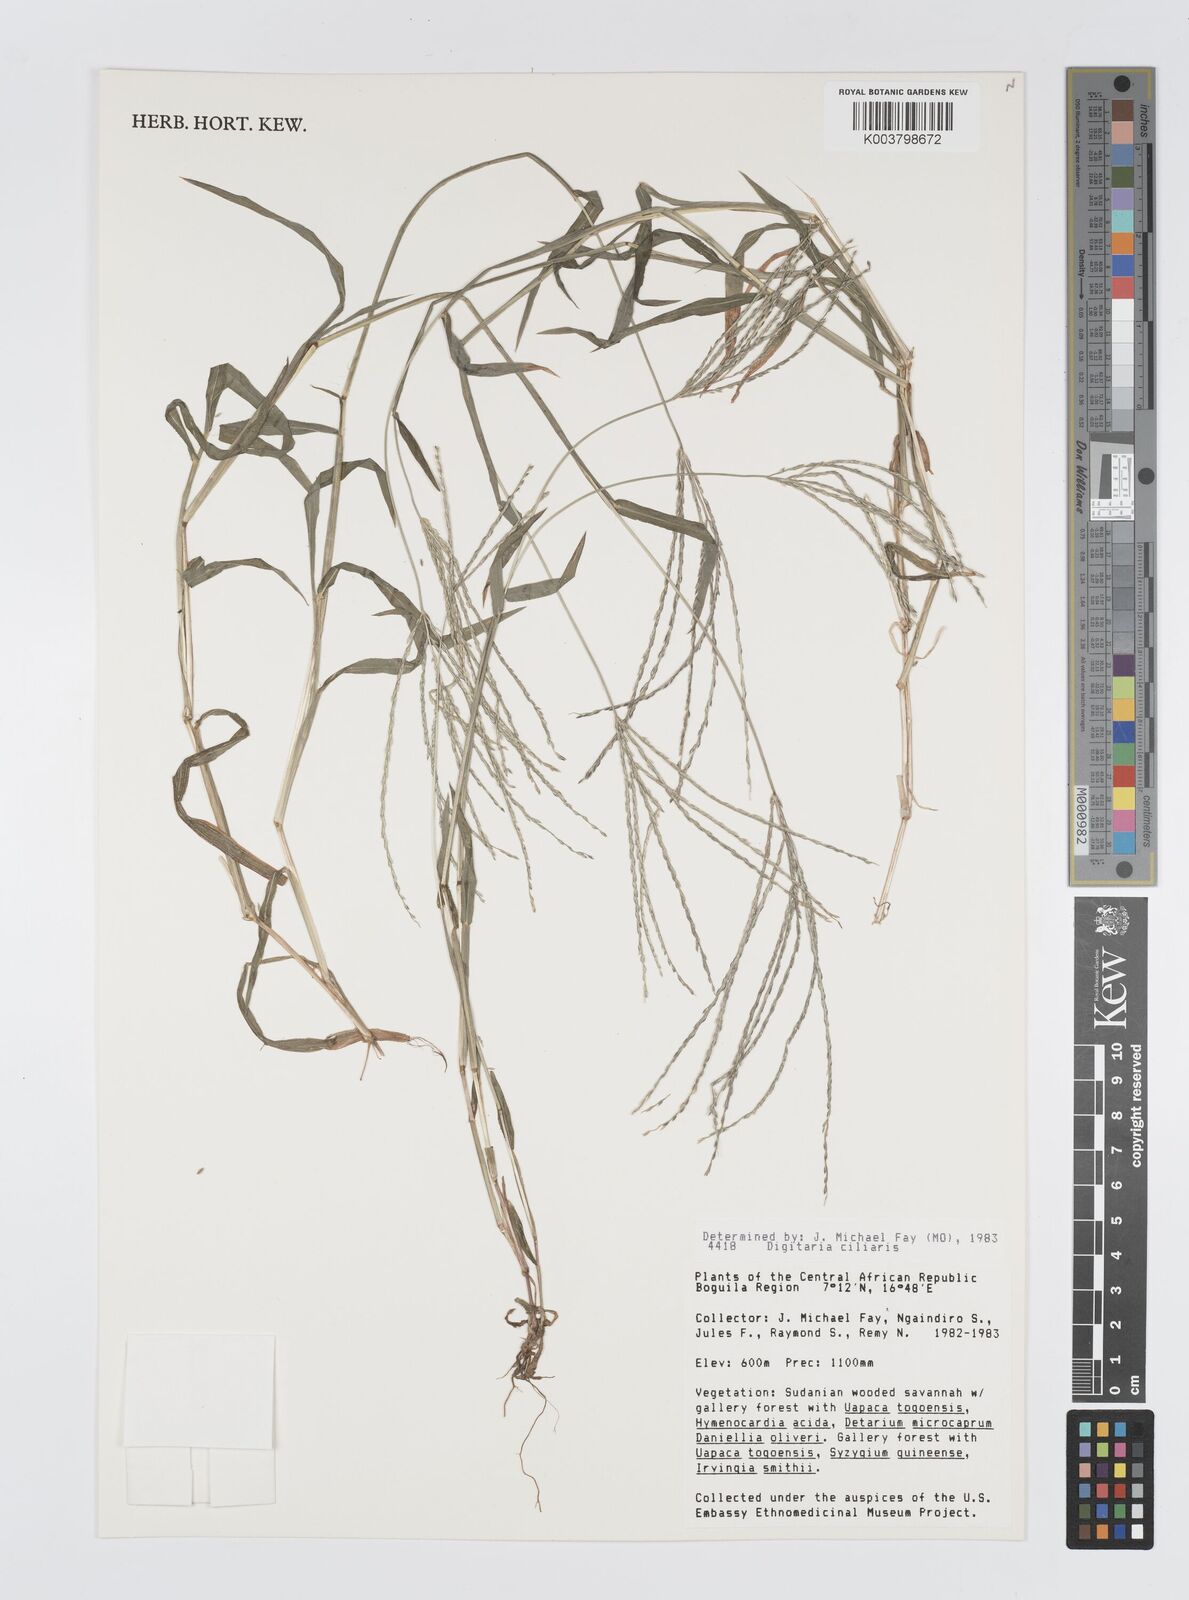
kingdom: Plantae
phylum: Tracheophyta
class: Liliopsida
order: Poales
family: Poaceae
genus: Digitaria
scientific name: Digitaria ciliaris
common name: Tropical finger-grass
